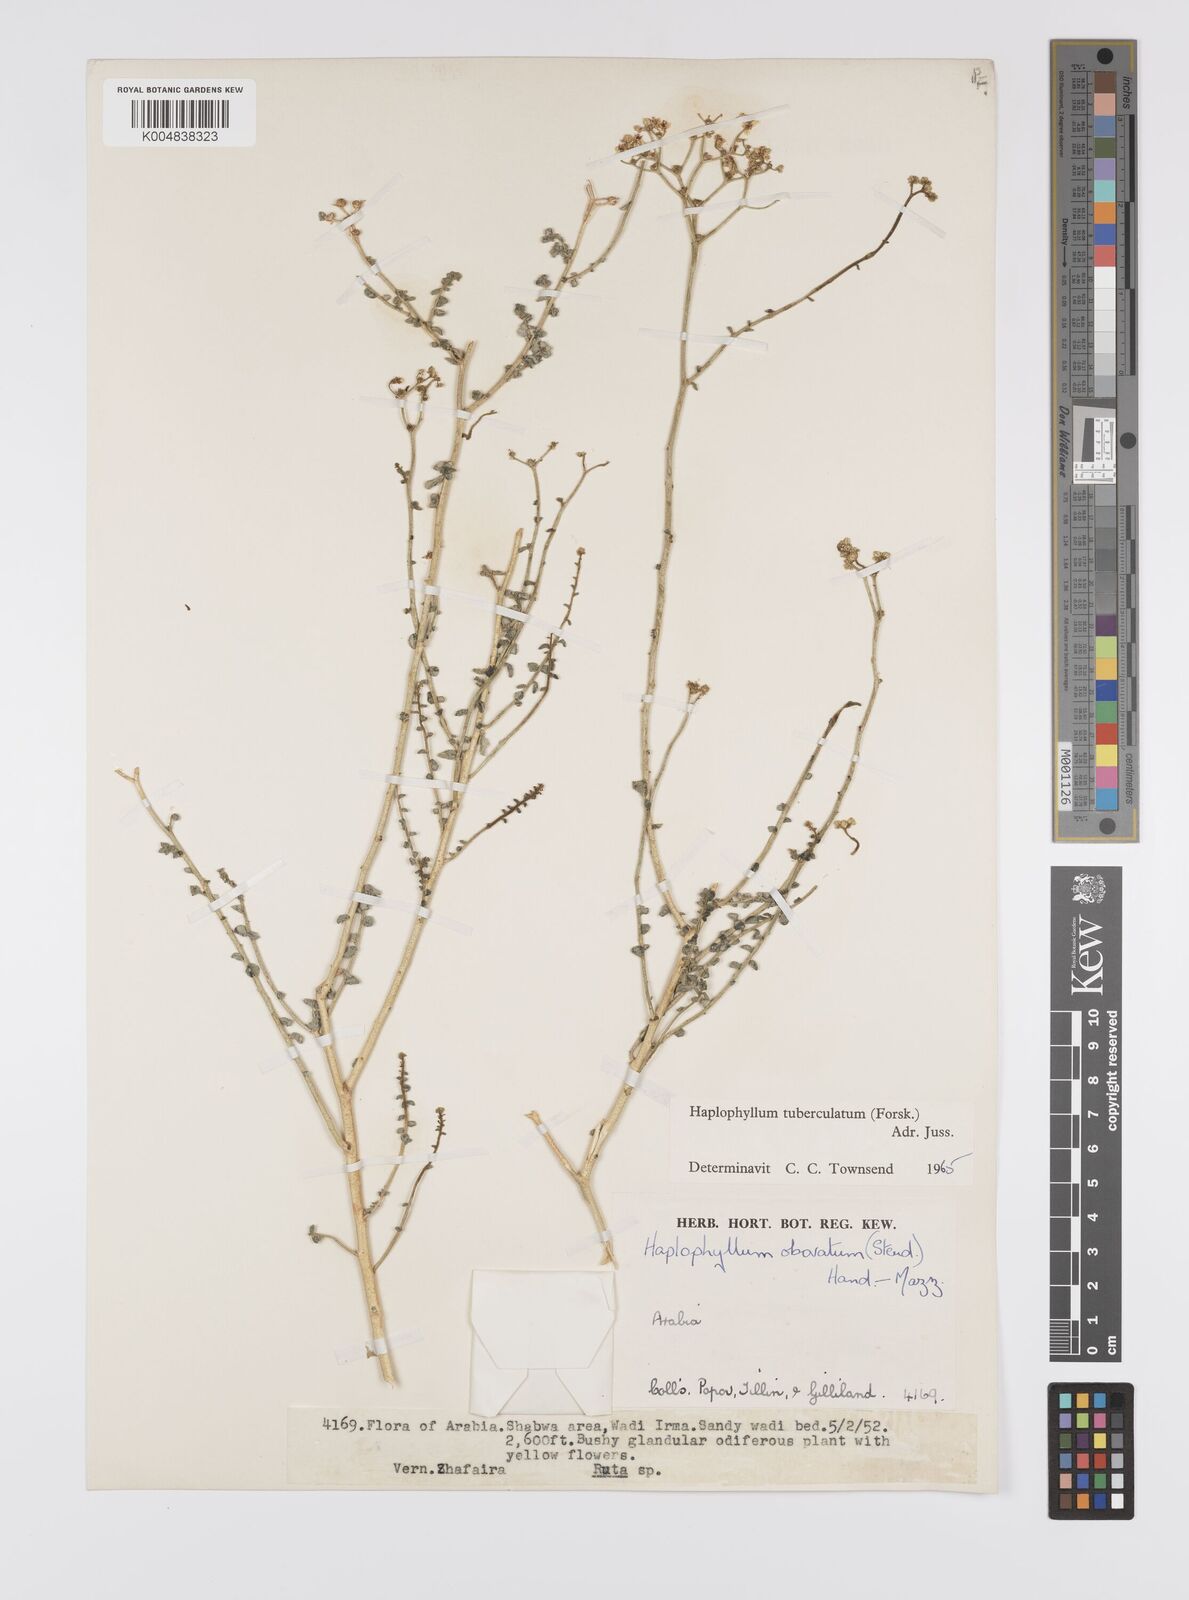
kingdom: Plantae
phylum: Tracheophyta
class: Magnoliopsida
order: Sapindales
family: Rutaceae
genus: Haplophyllum
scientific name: Haplophyllum tuberculatum
